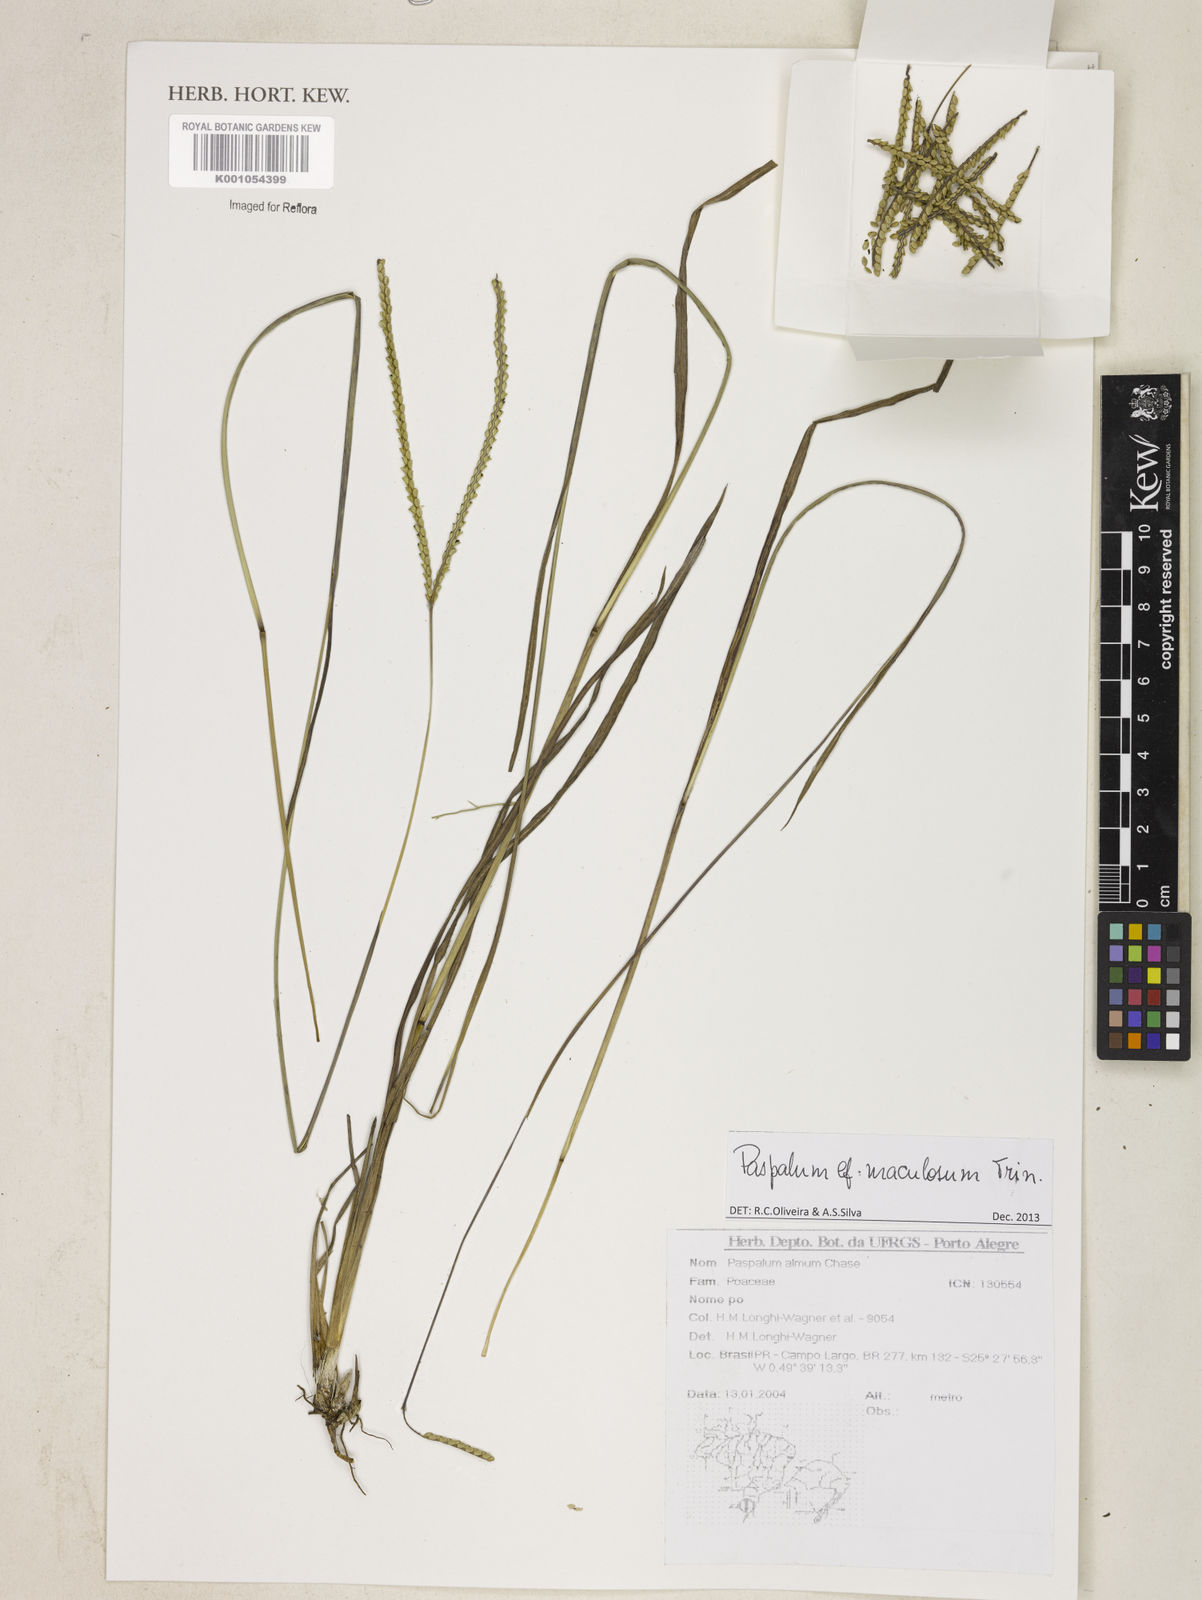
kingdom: Plantae
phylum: Tracheophyta
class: Liliopsida
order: Poales
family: Poaceae
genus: Paspalum
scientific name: Paspalum maculosum
